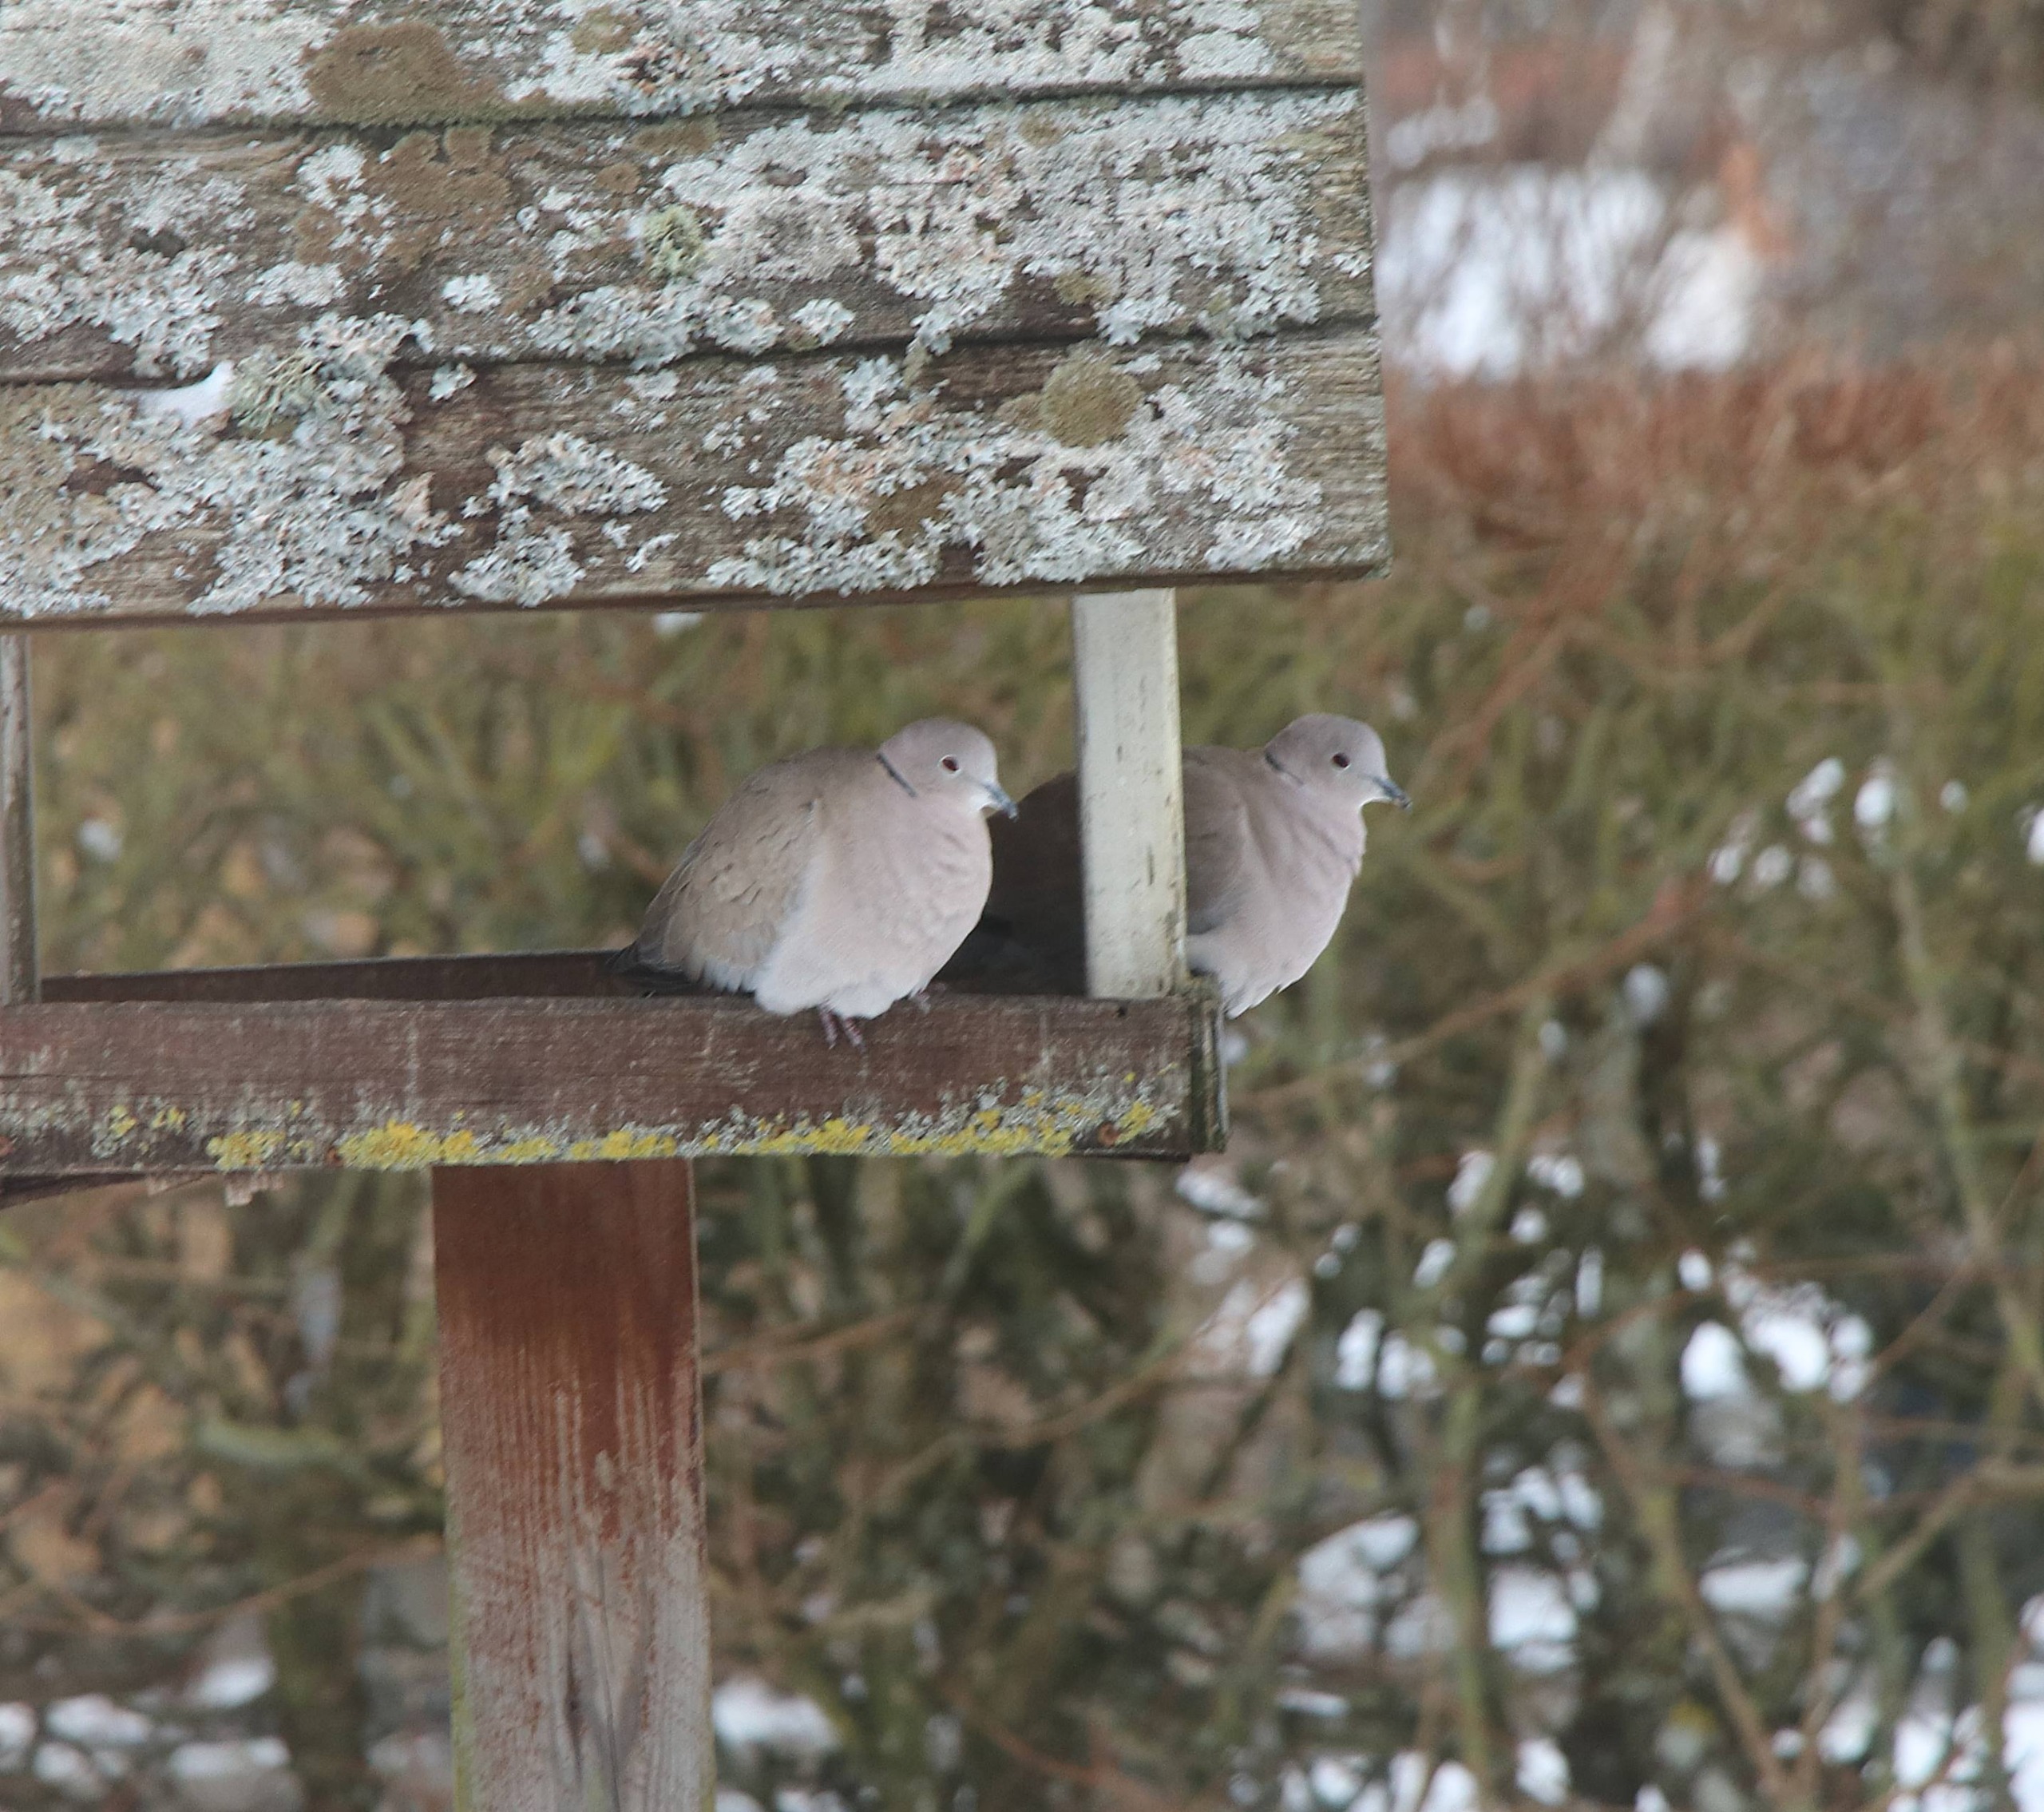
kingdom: Animalia
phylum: Chordata
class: Aves
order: Columbiformes
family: Columbidae
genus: Streptopelia
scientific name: Streptopelia decaocto
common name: Tyrkerdue
